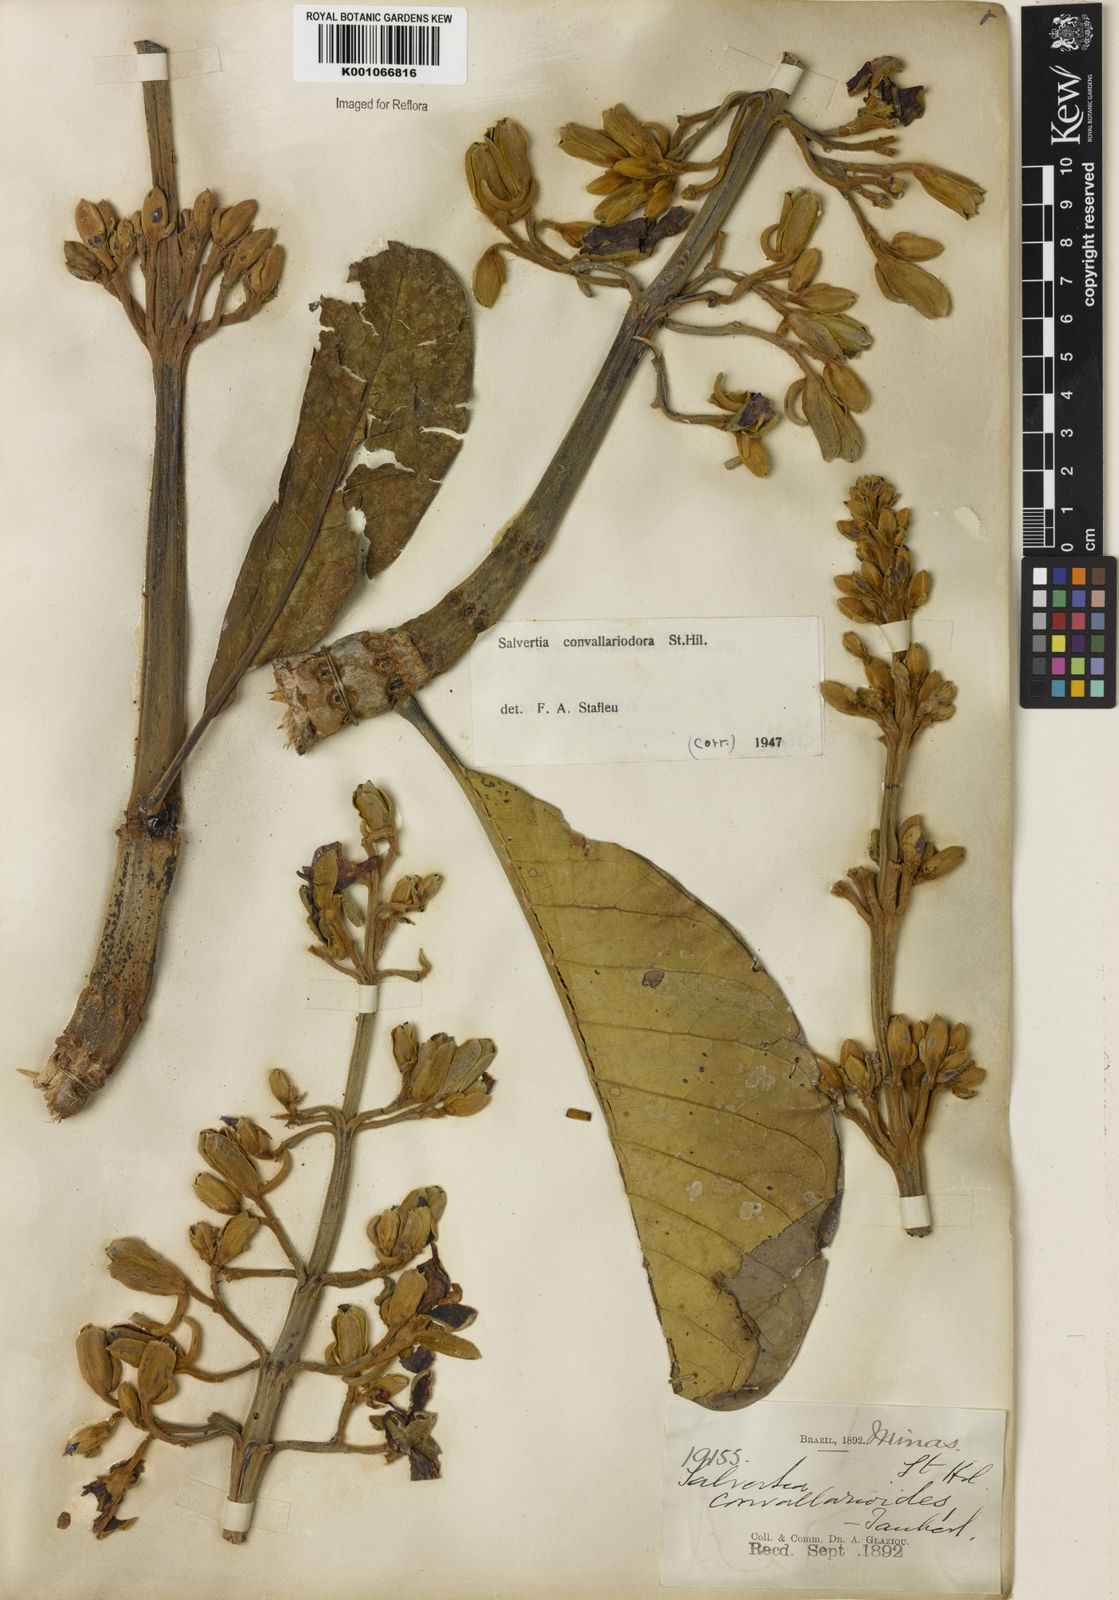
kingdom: Plantae
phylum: Tracheophyta
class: Magnoliopsida
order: Myrtales
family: Vochysiaceae
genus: Salvertia
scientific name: Salvertia convallariodora
